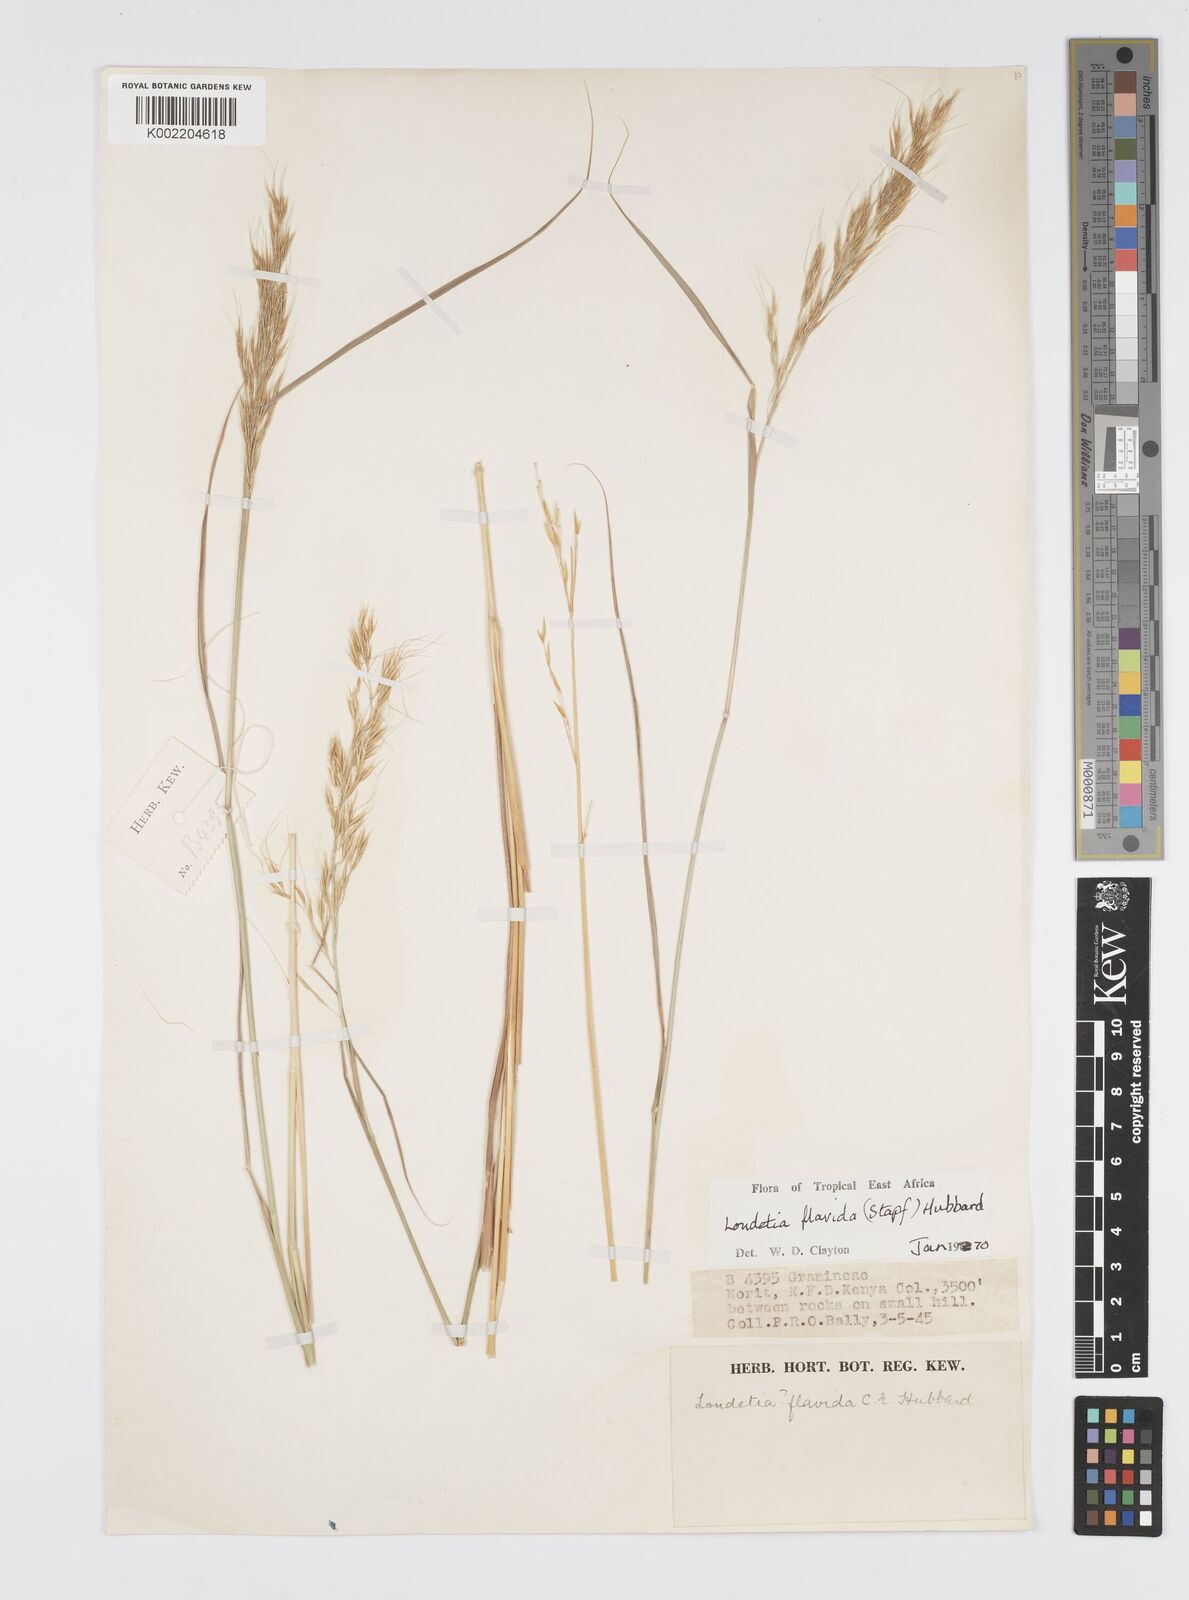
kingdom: Plantae
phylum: Tracheophyta
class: Liliopsida
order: Poales
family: Poaceae
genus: Loudetia
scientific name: Loudetia flavida
